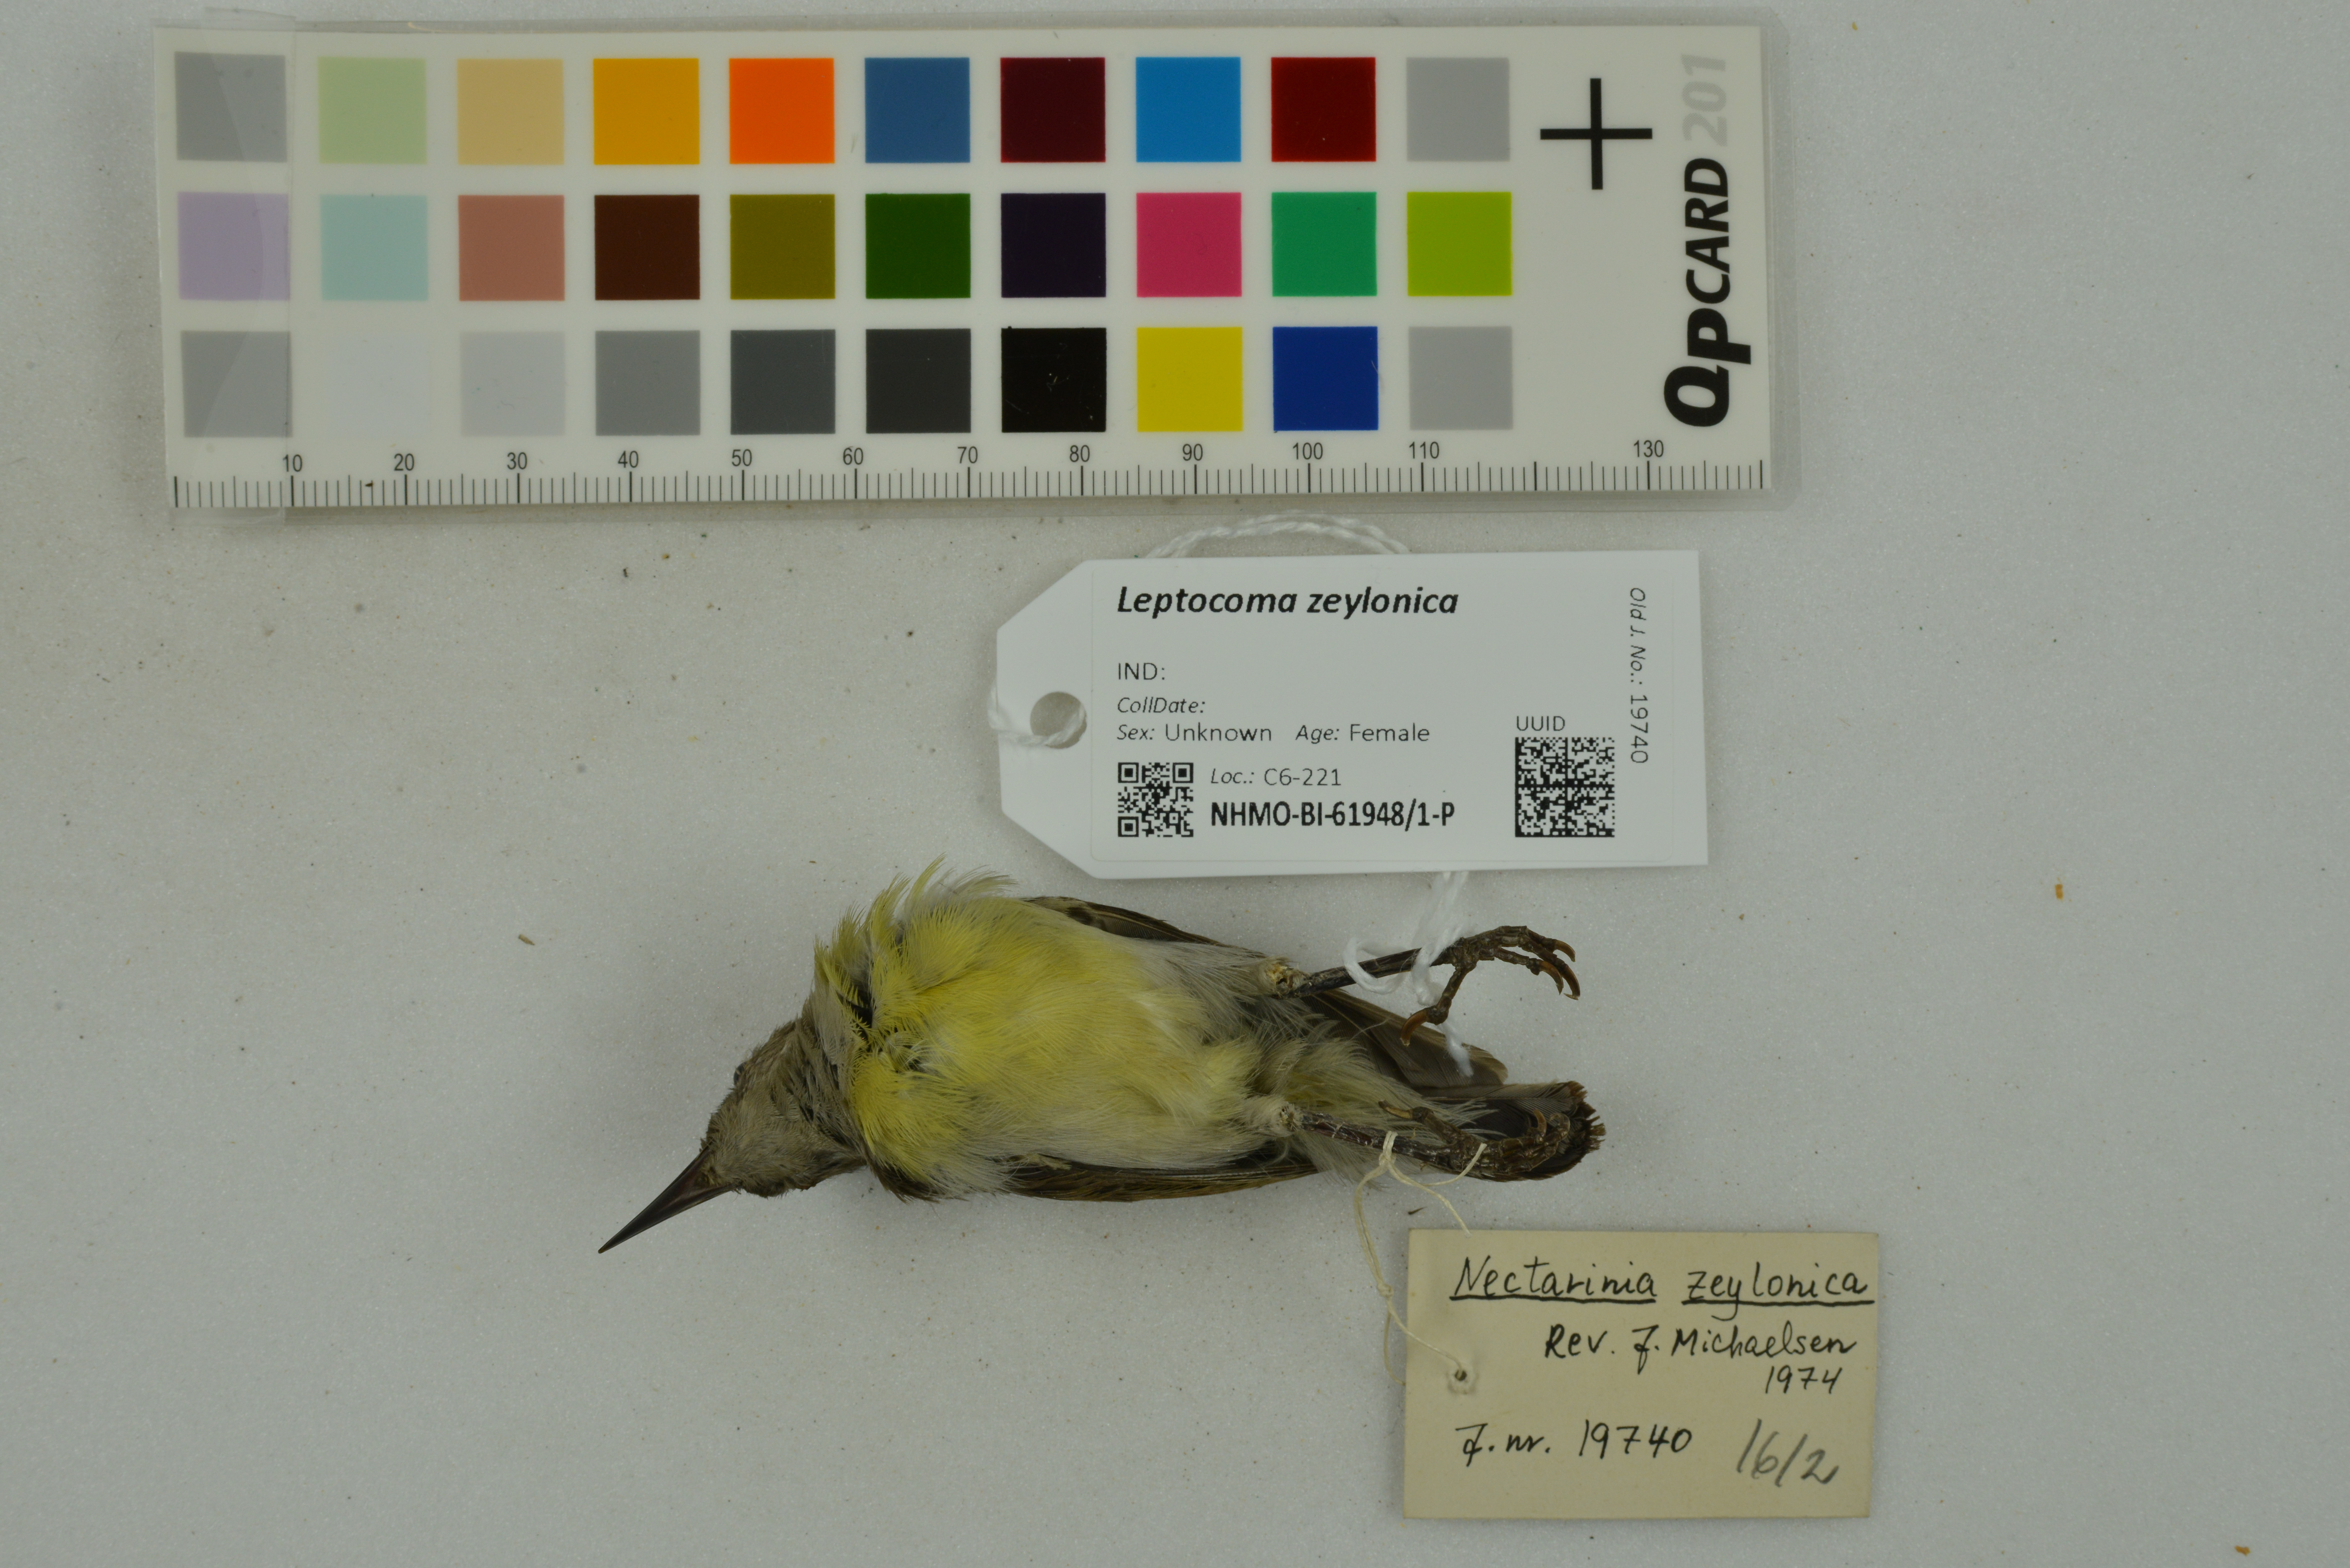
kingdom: Animalia
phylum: Chordata
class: Aves
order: Passeriformes
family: Nectariniidae
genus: Leptocoma
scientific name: Leptocoma zeylonica
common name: Purple-rumped sunbird
